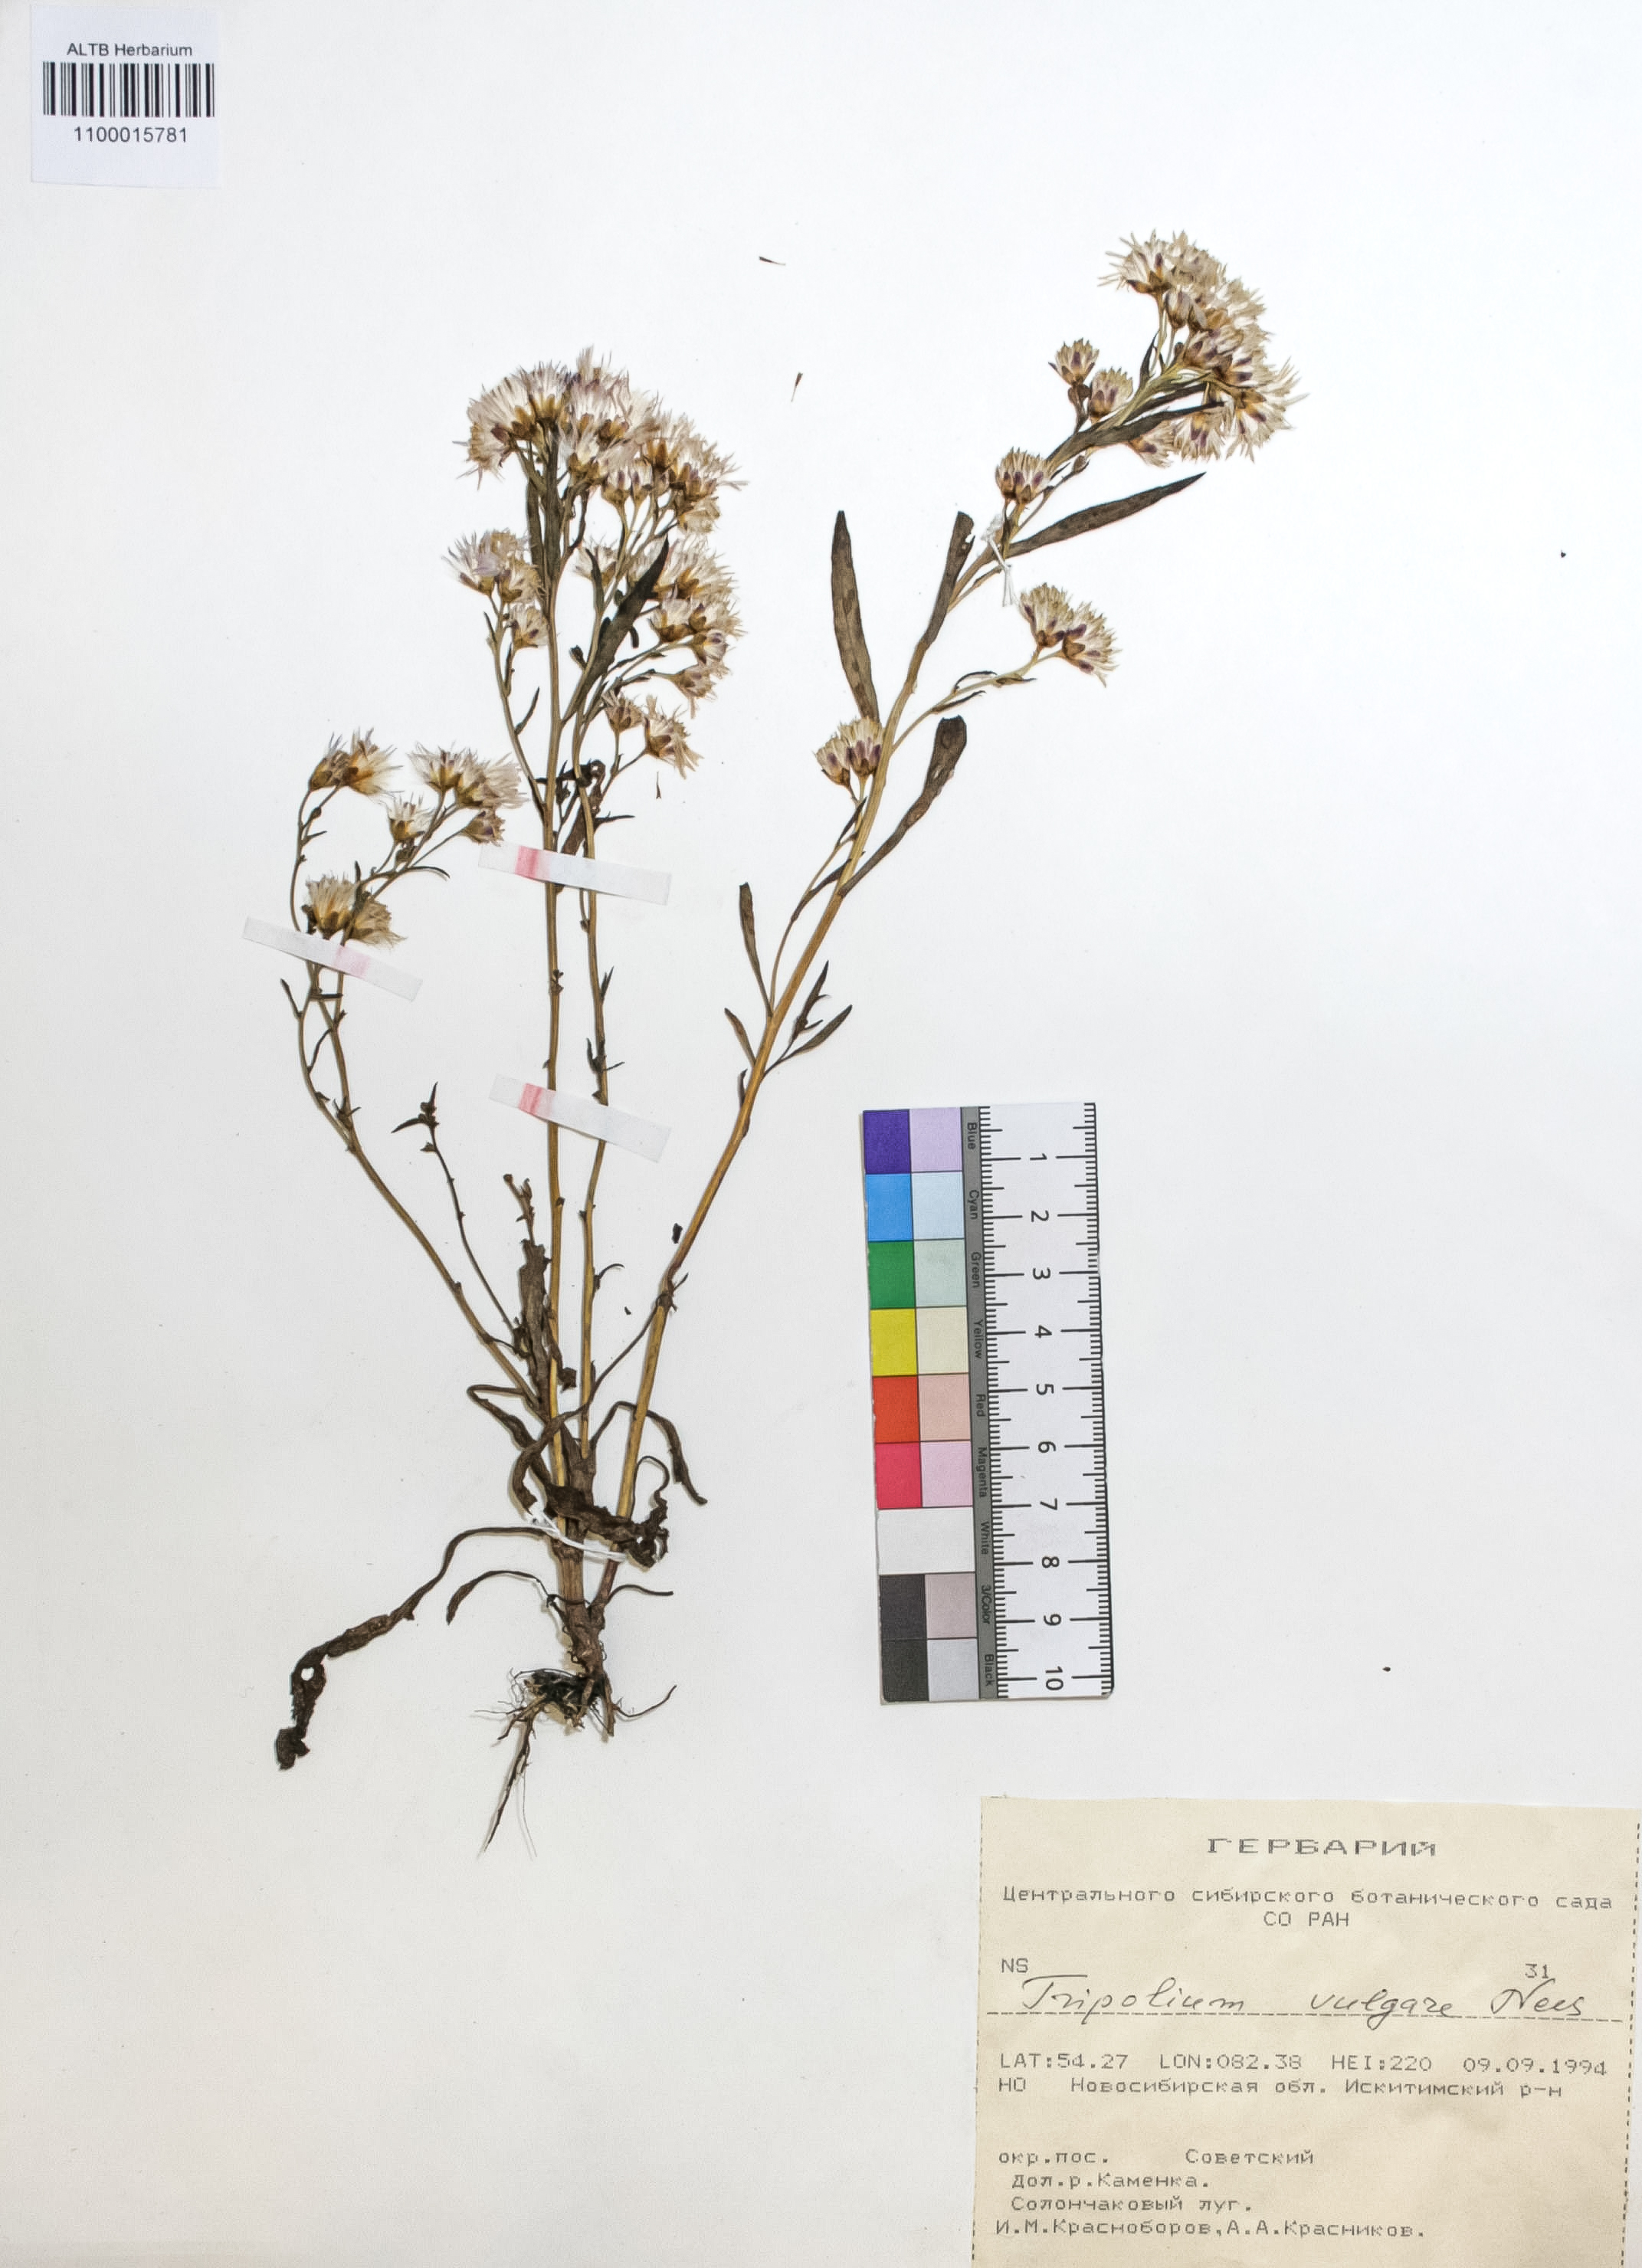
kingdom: Plantae
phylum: Tracheophyta
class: Magnoliopsida
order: Asterales
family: Asteraceae
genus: Tripolium
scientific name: Tripolium pannonicum
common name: Sea aster
